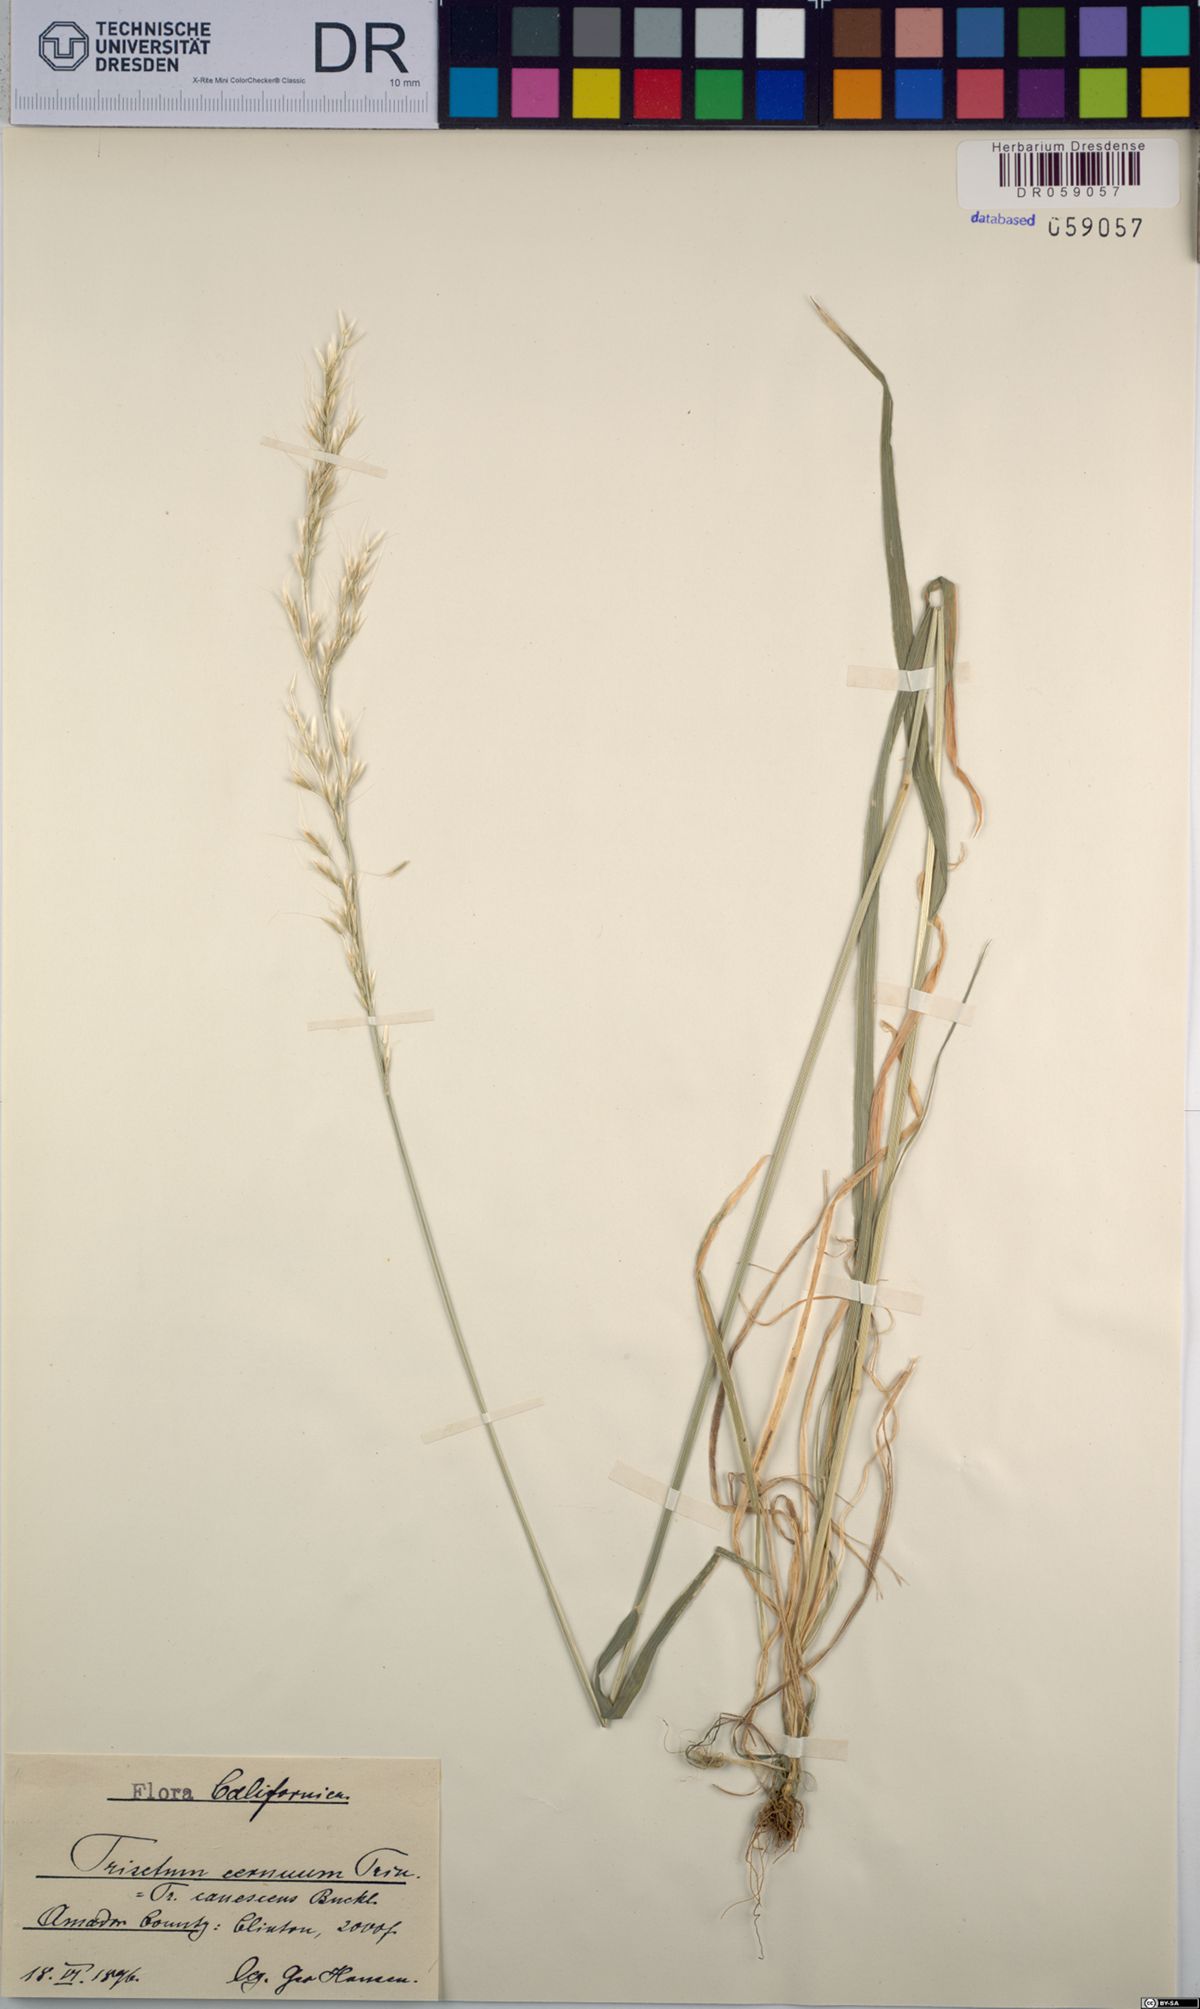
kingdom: Plantae
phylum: Tracheophyta
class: Liliopsida
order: Poales
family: Poaceae
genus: Graphephorum
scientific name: Graphephorum cernuum
